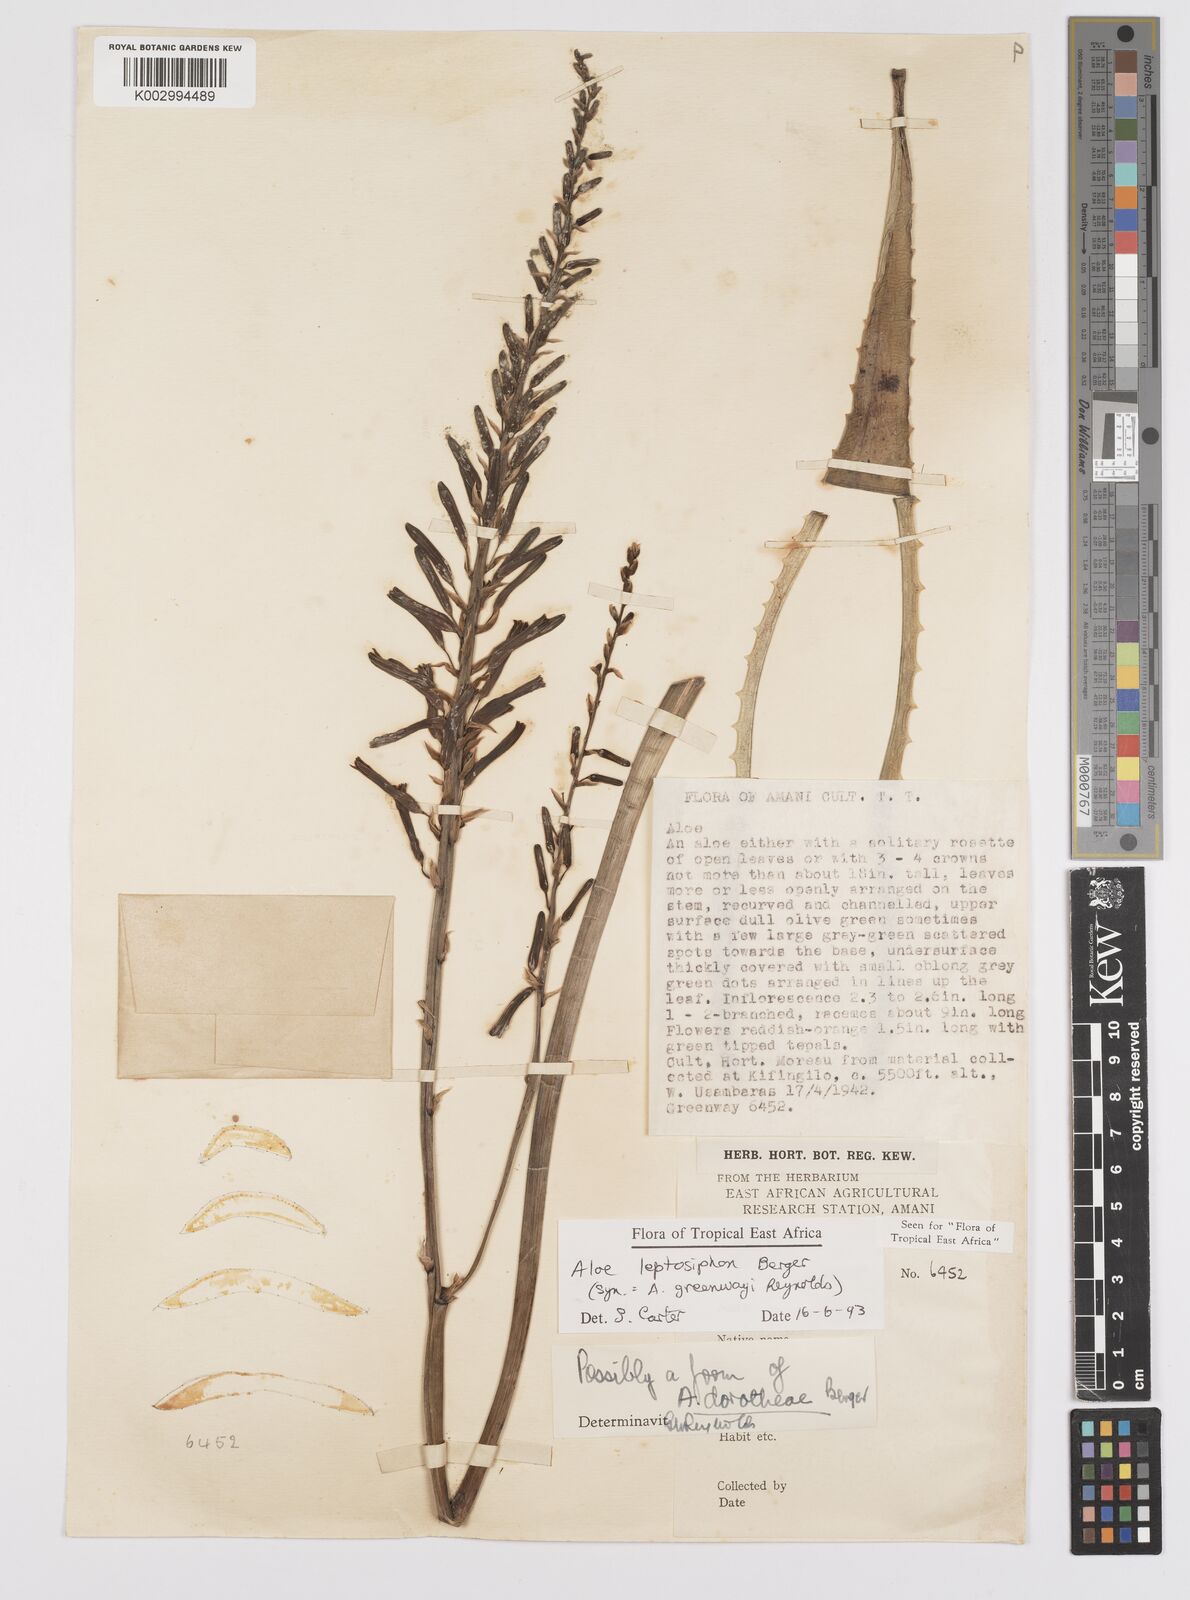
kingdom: Plantae
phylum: Tracheophyta
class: Liliopsida
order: Asparagales
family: Asphodelaceae
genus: Aloe
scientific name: Aloe leptosiphon
